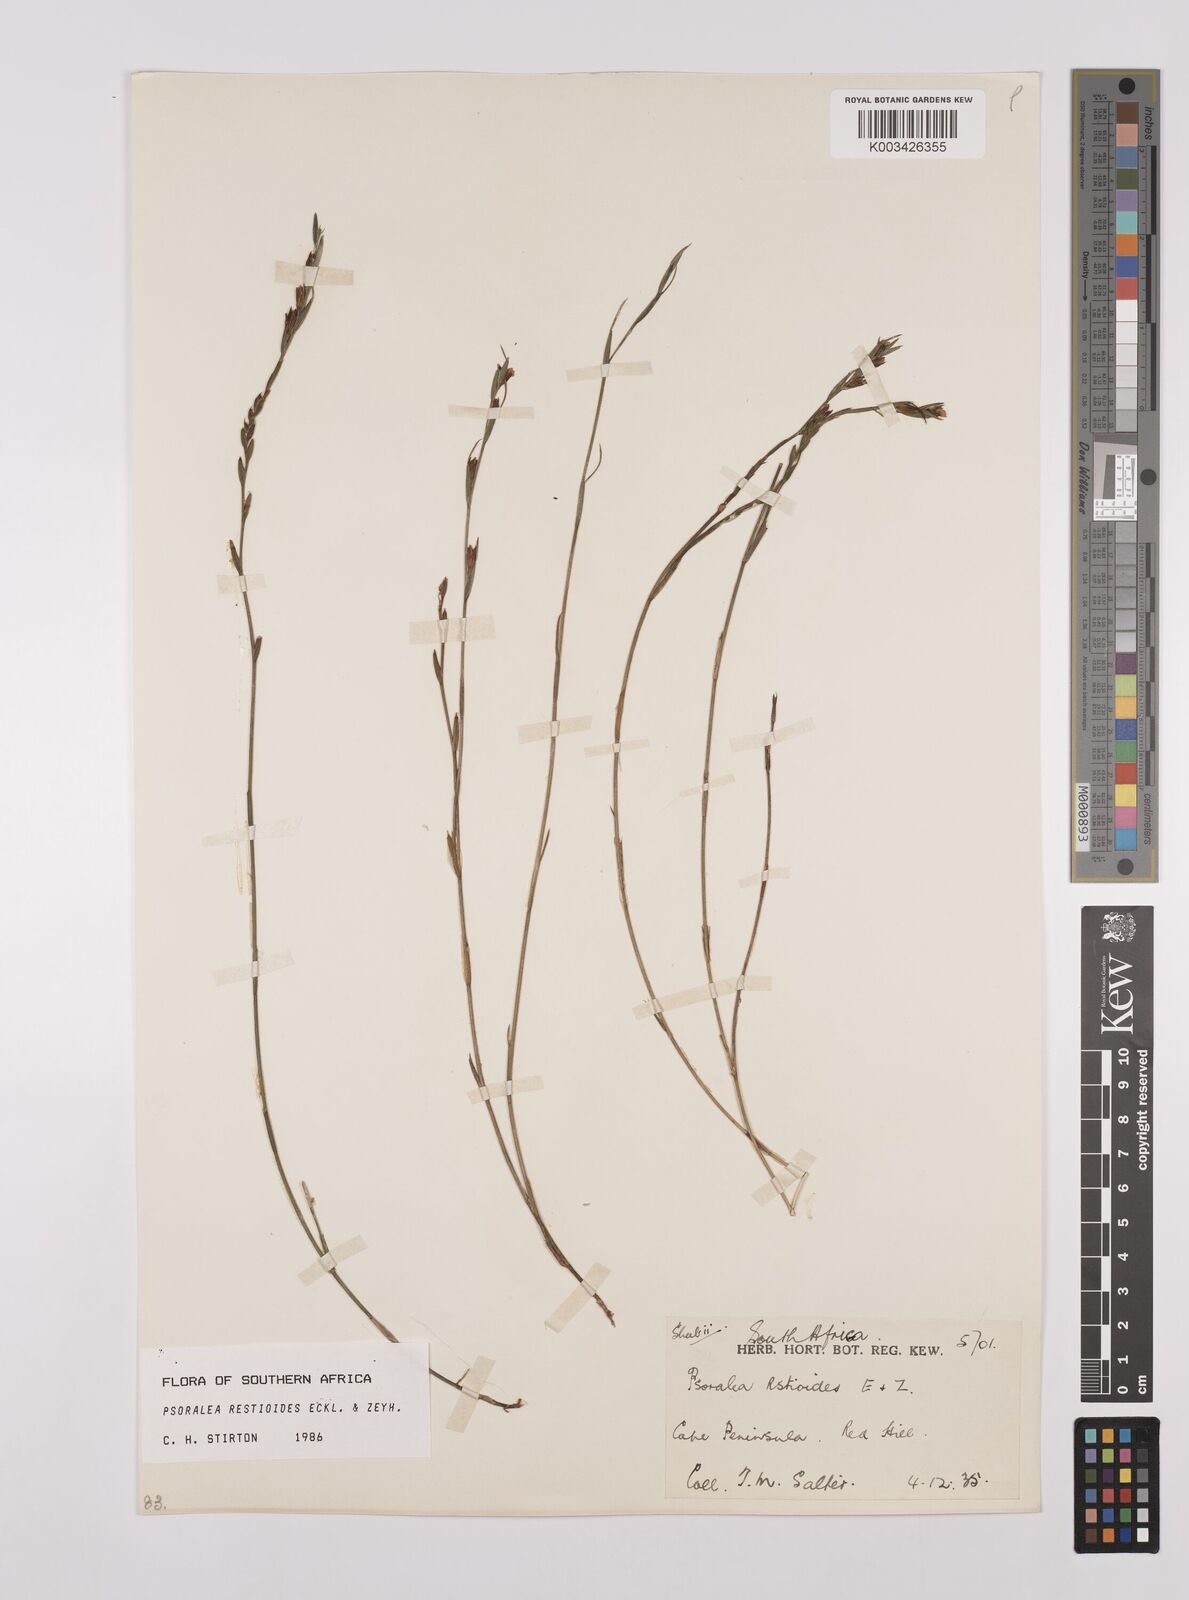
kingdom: Plantae
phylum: Tracheophyta
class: Magnoliopsida
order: Fabales
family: Fabaceae
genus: Psoralea
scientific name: Psoralea restioides
